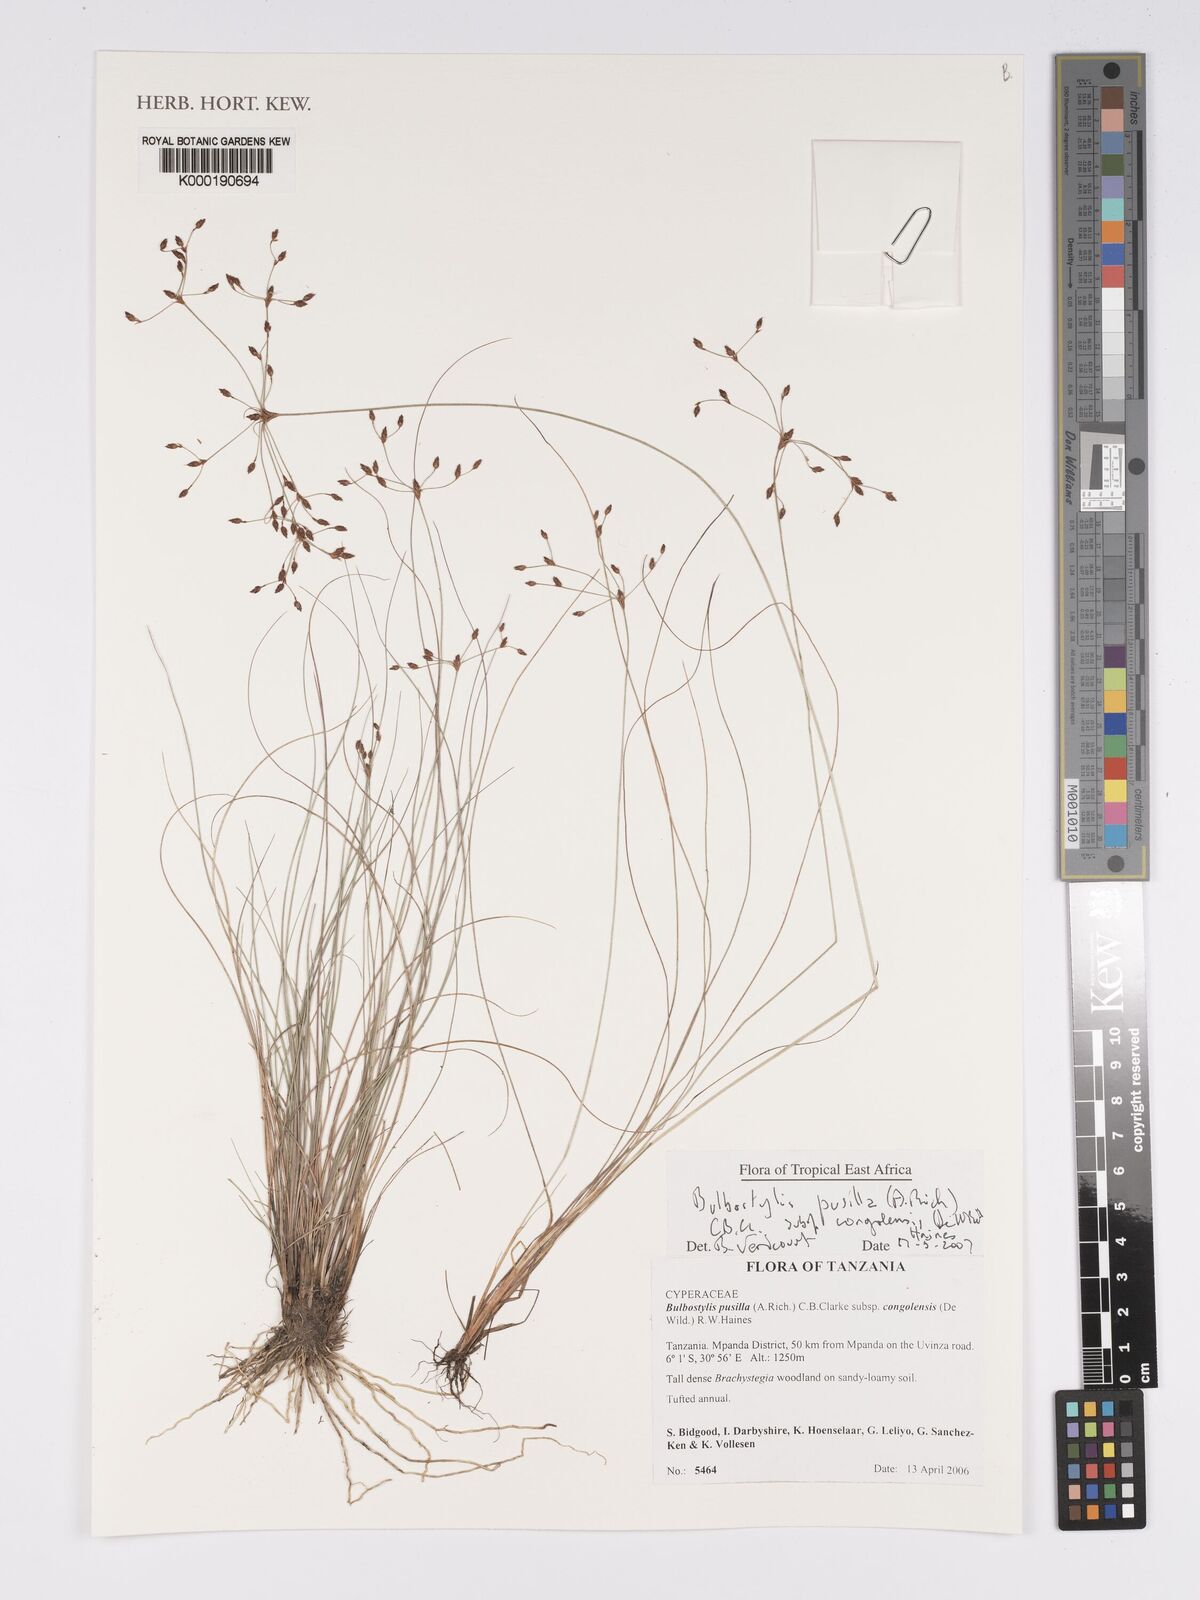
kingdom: Plantae
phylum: Tracheophyta
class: Liliopsida
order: Poales
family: Cyperaceae
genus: Bulbostylis
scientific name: Bulbostylis congolensis
